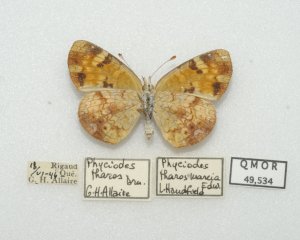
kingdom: Animalia
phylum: Arthropoda
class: Insecta
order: Lepidoptera
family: Nymphalidae
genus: Phyciodes
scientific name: Phyciodes tharos
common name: Northern Crescent
